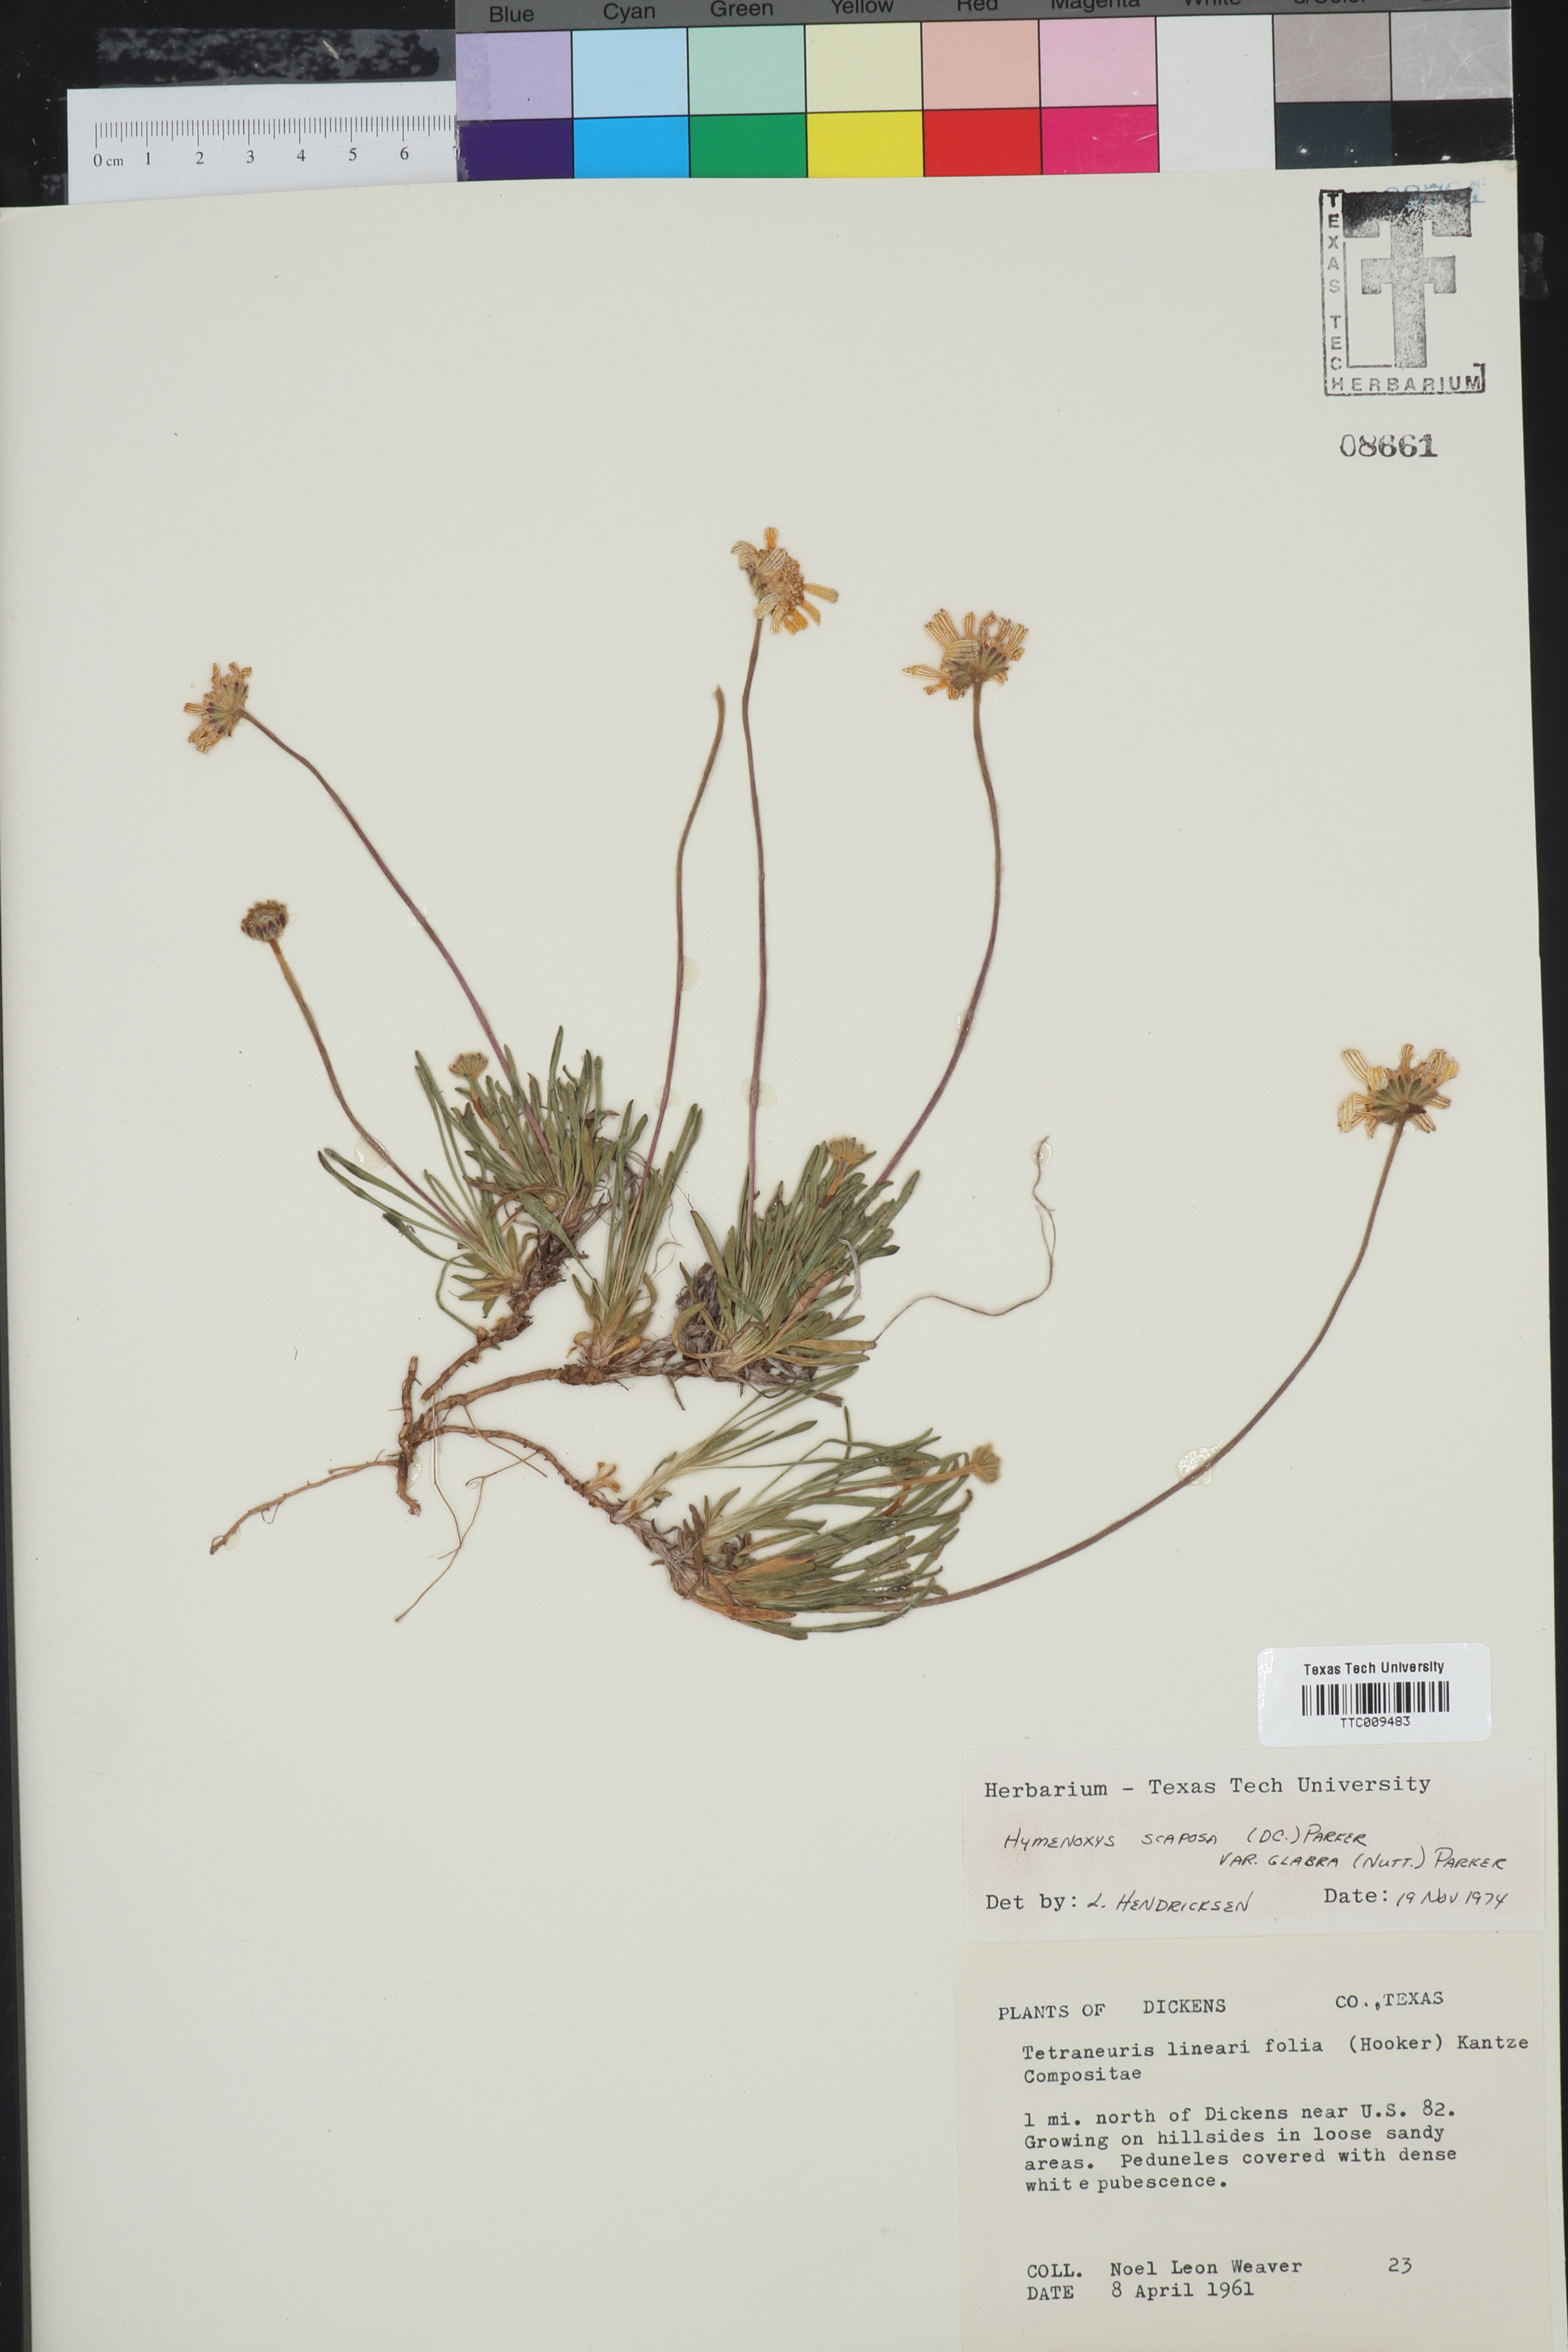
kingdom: Plantae
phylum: Tracheophyta
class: Magnoliopsida
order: Asterales
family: Asteraceae
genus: Tetraneuris
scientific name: Tetraneuris scaposa
